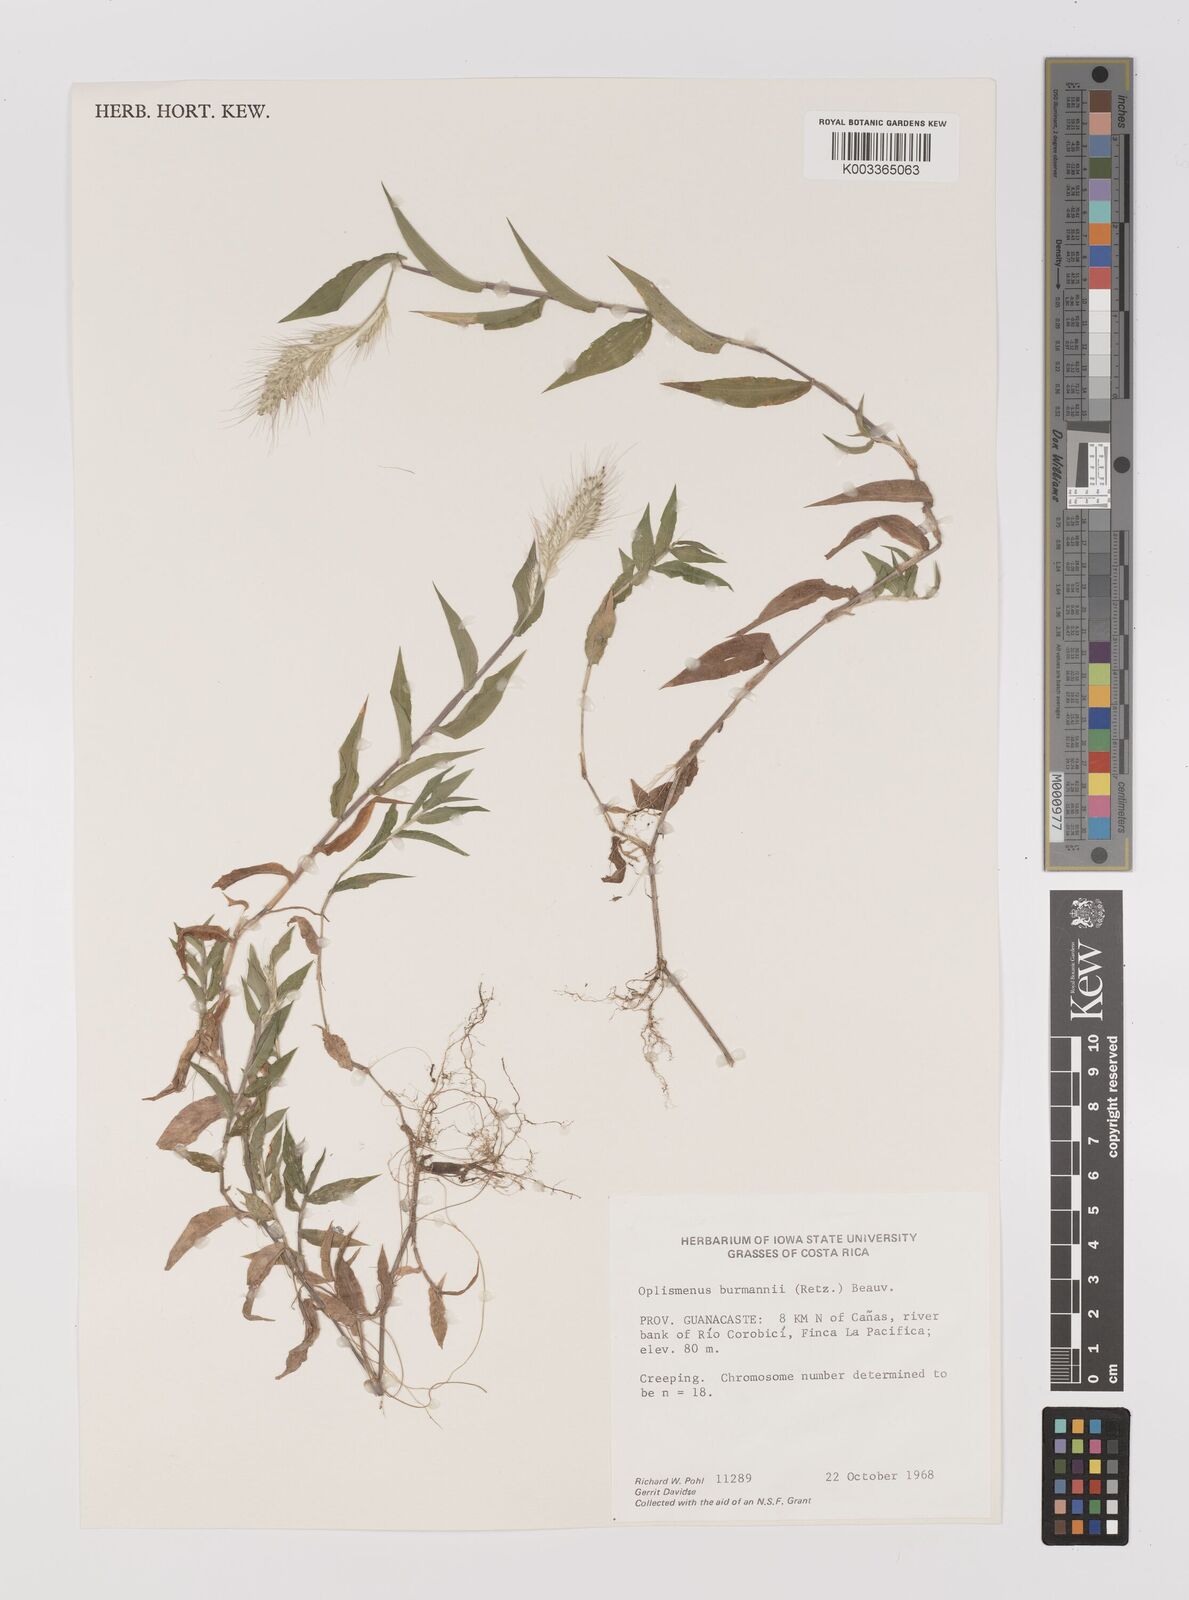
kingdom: Plantae
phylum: Tracheophyta
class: Liliopsida
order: Poales
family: Poaceae
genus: Oplismenus
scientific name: Oplismenus burmanni
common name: Burmann's basketgrass
